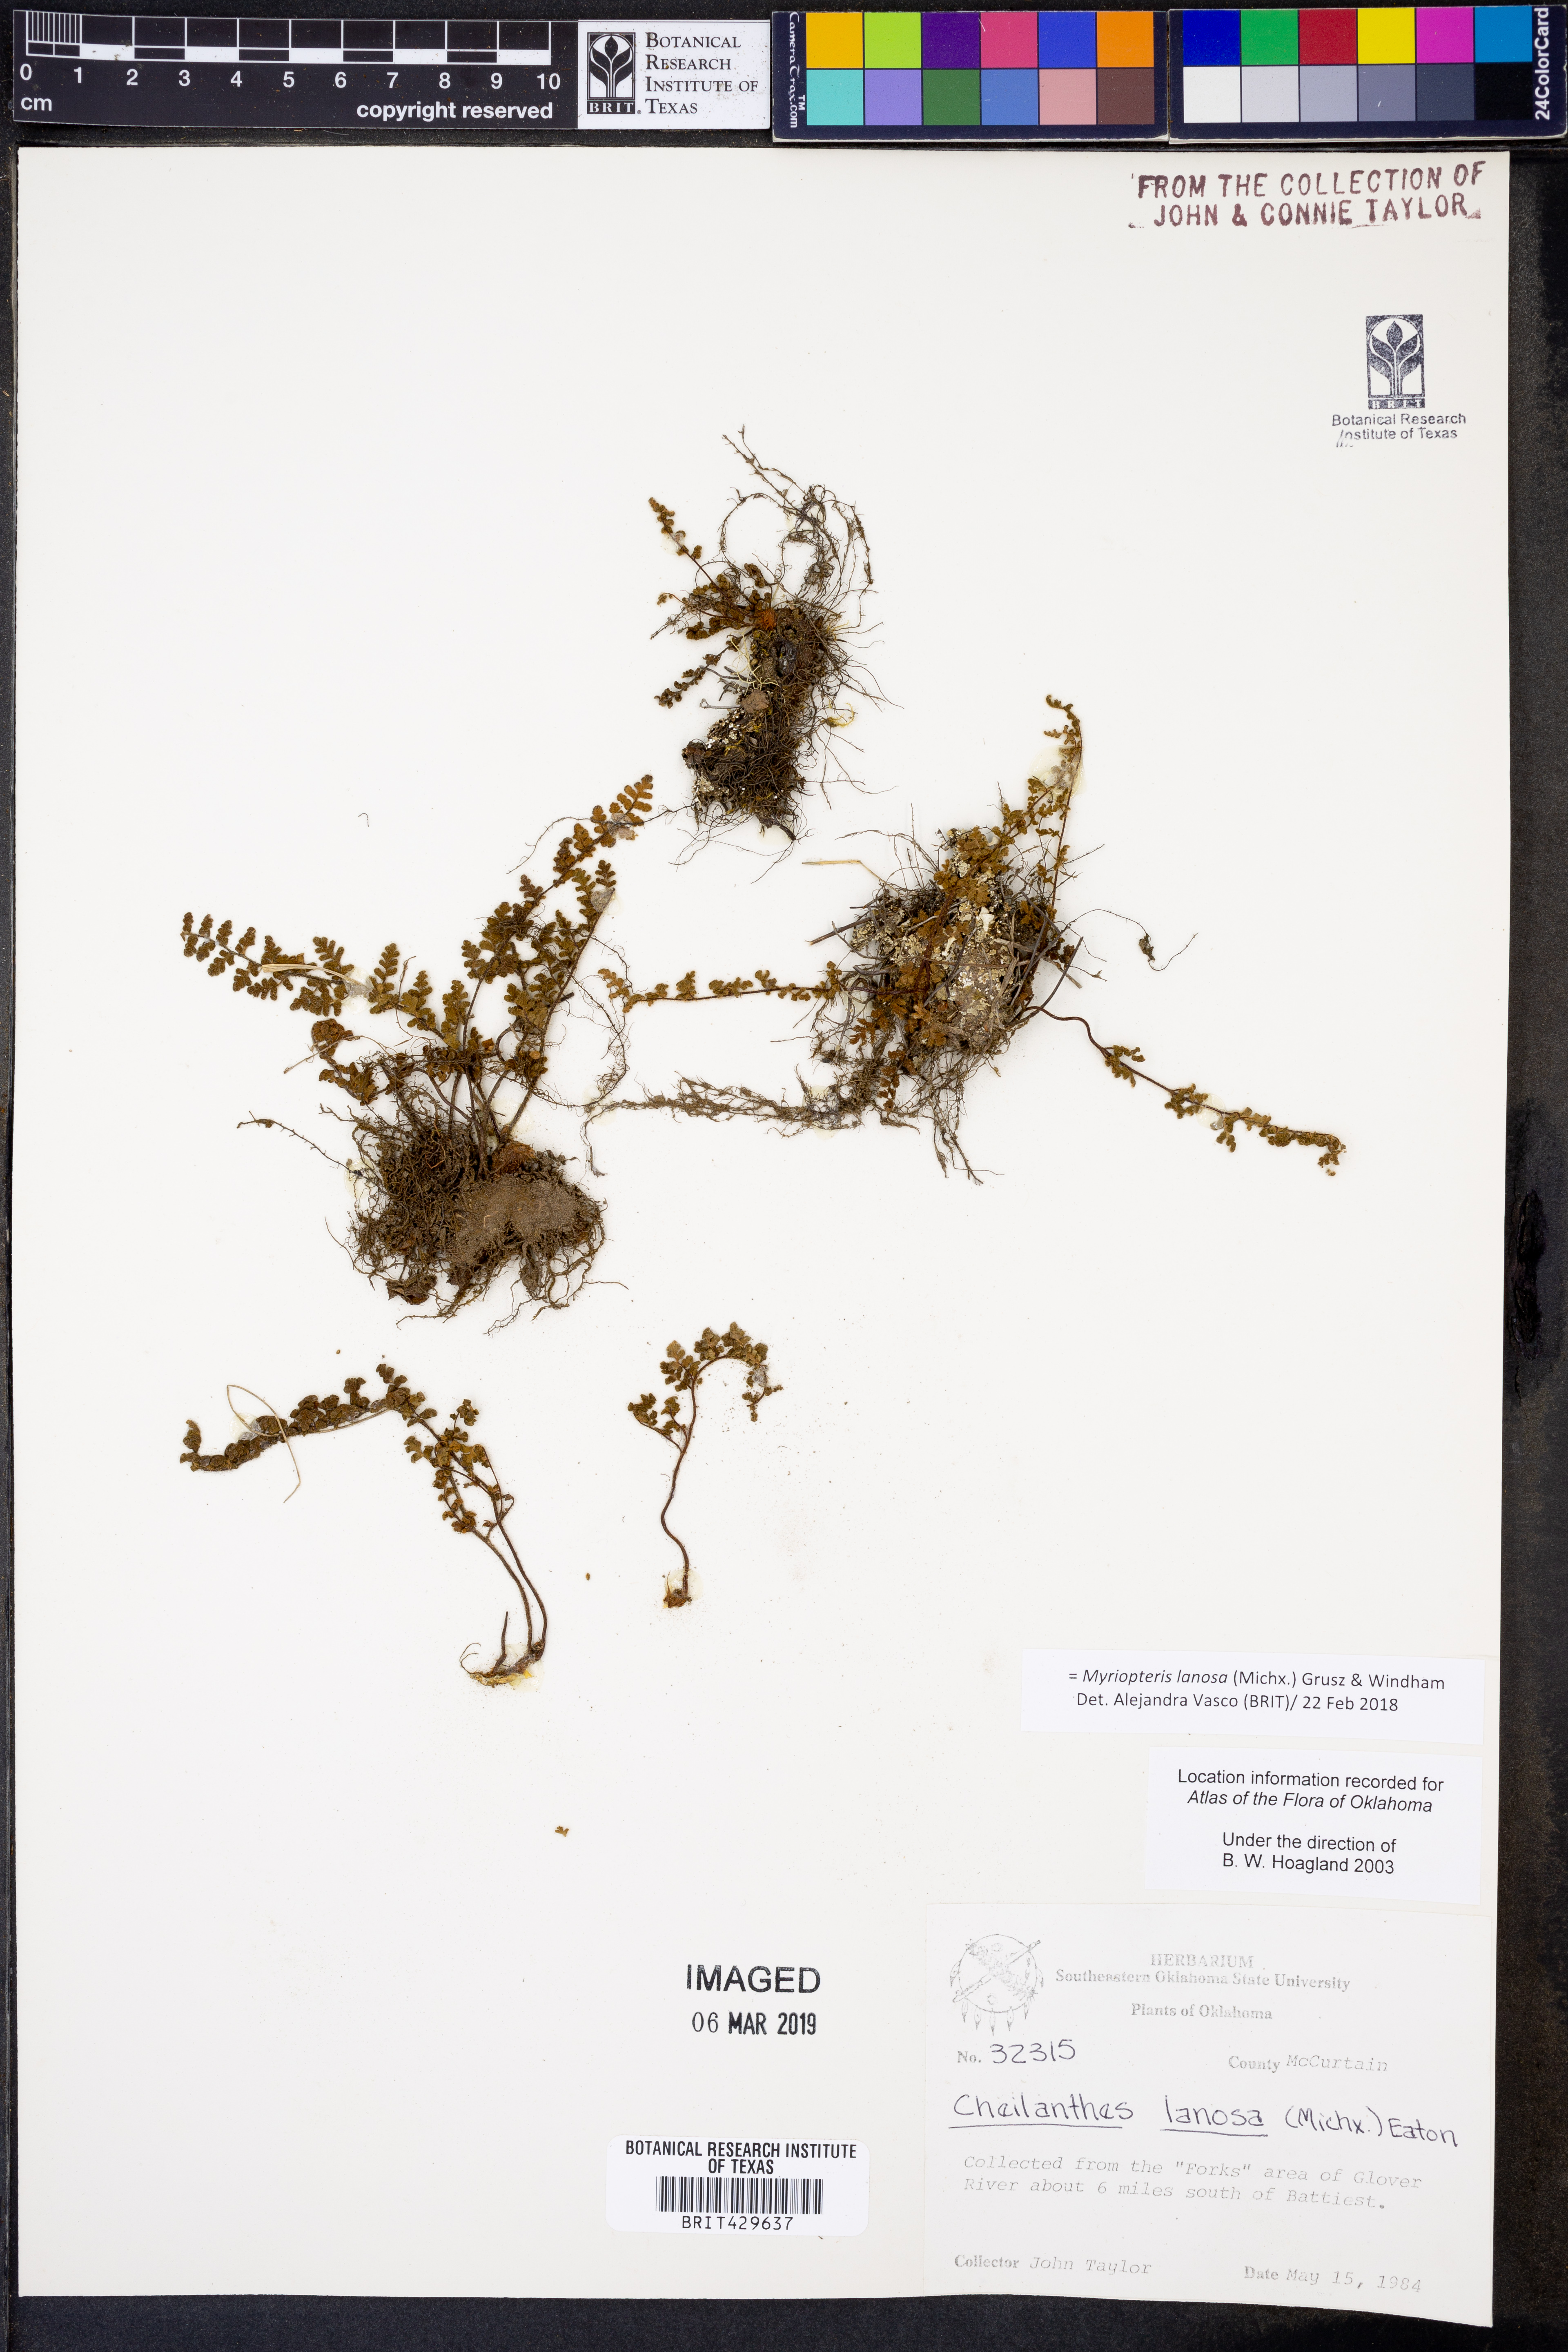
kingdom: Plantae
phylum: Tracheophyta
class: Polypodiopsida
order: Polypodiales
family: Pteridaceae
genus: Myriopteris
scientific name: Myriopteris lanosa
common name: Hairy lip fern
